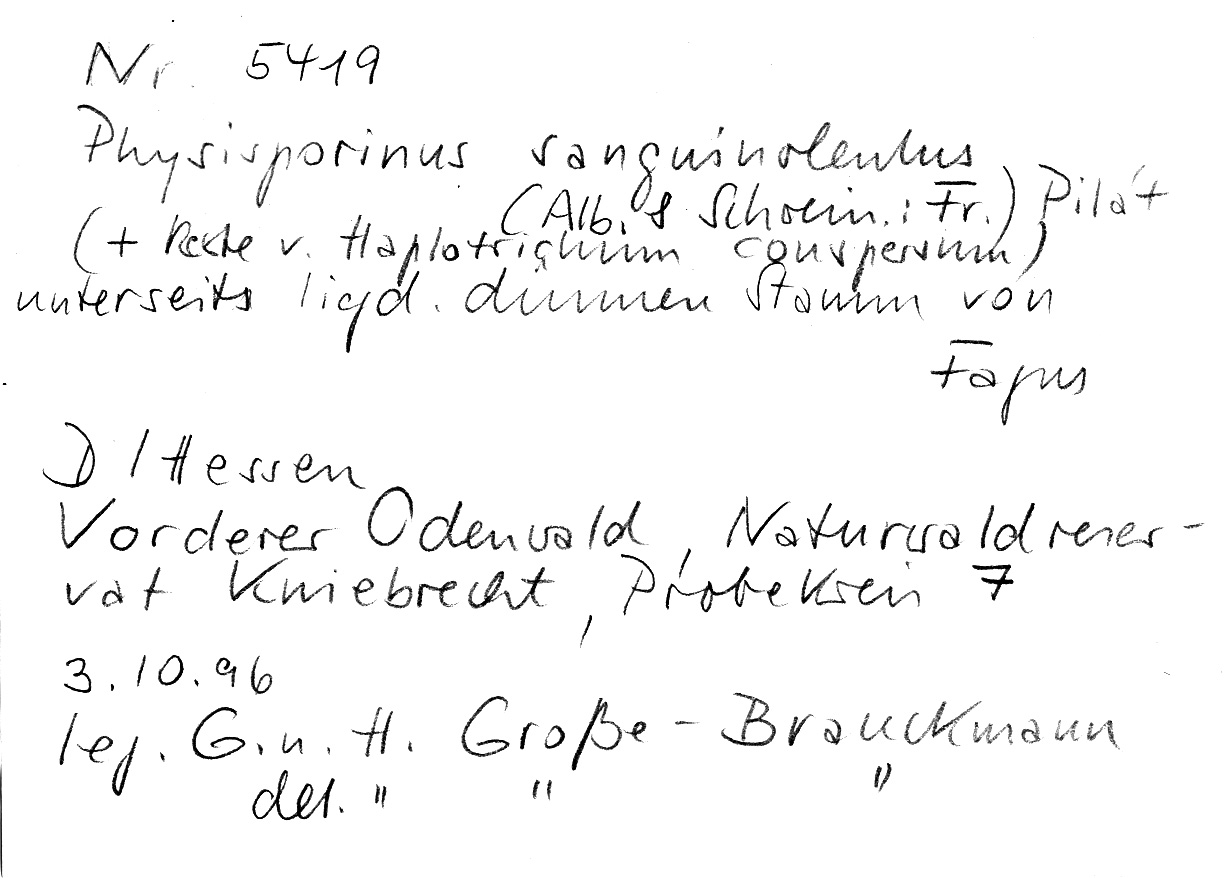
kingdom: Plantae
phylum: Tracheophyta
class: Magnoliopsida
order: Fagales
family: Fagaceae
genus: Fagus
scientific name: Fagus sylvatica
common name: Beech
